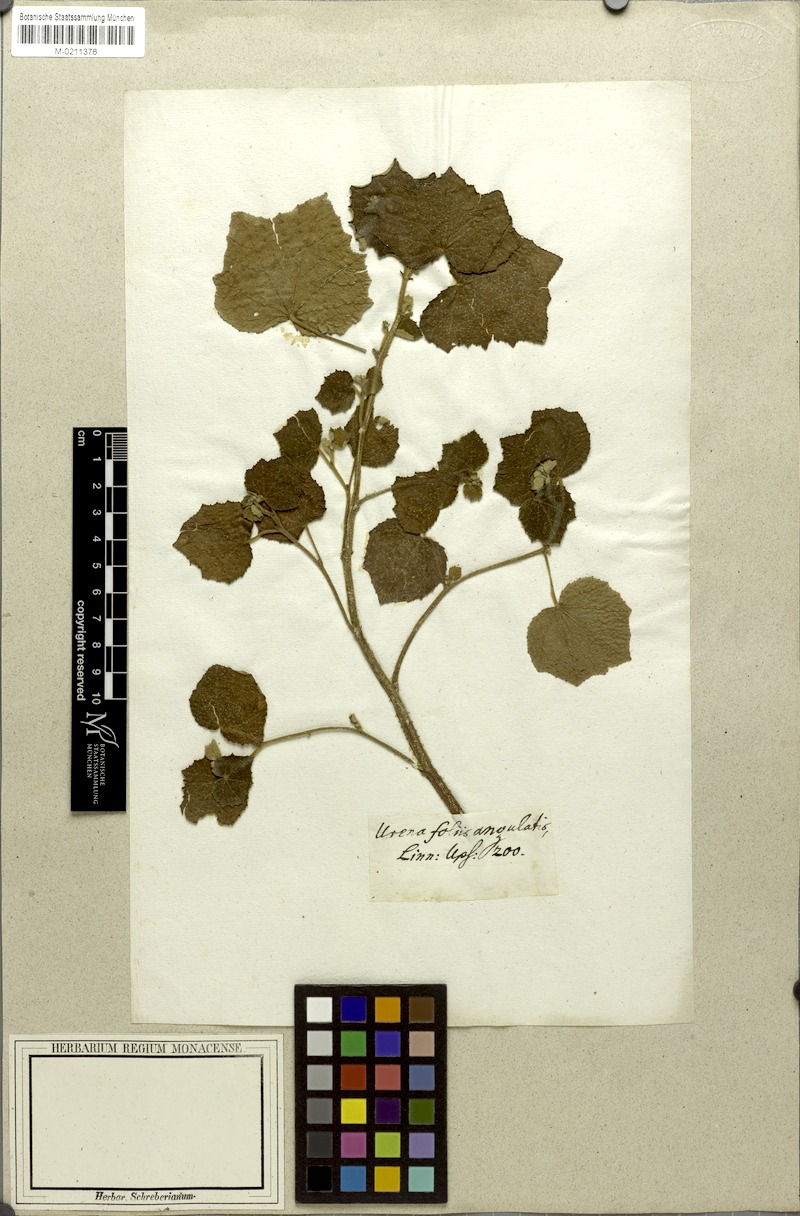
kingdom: Plantae
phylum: Tracheophyta
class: Magnoliopsida
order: Malvales
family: Malvaceae
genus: Urena
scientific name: Urena lobata
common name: Caesarweed
